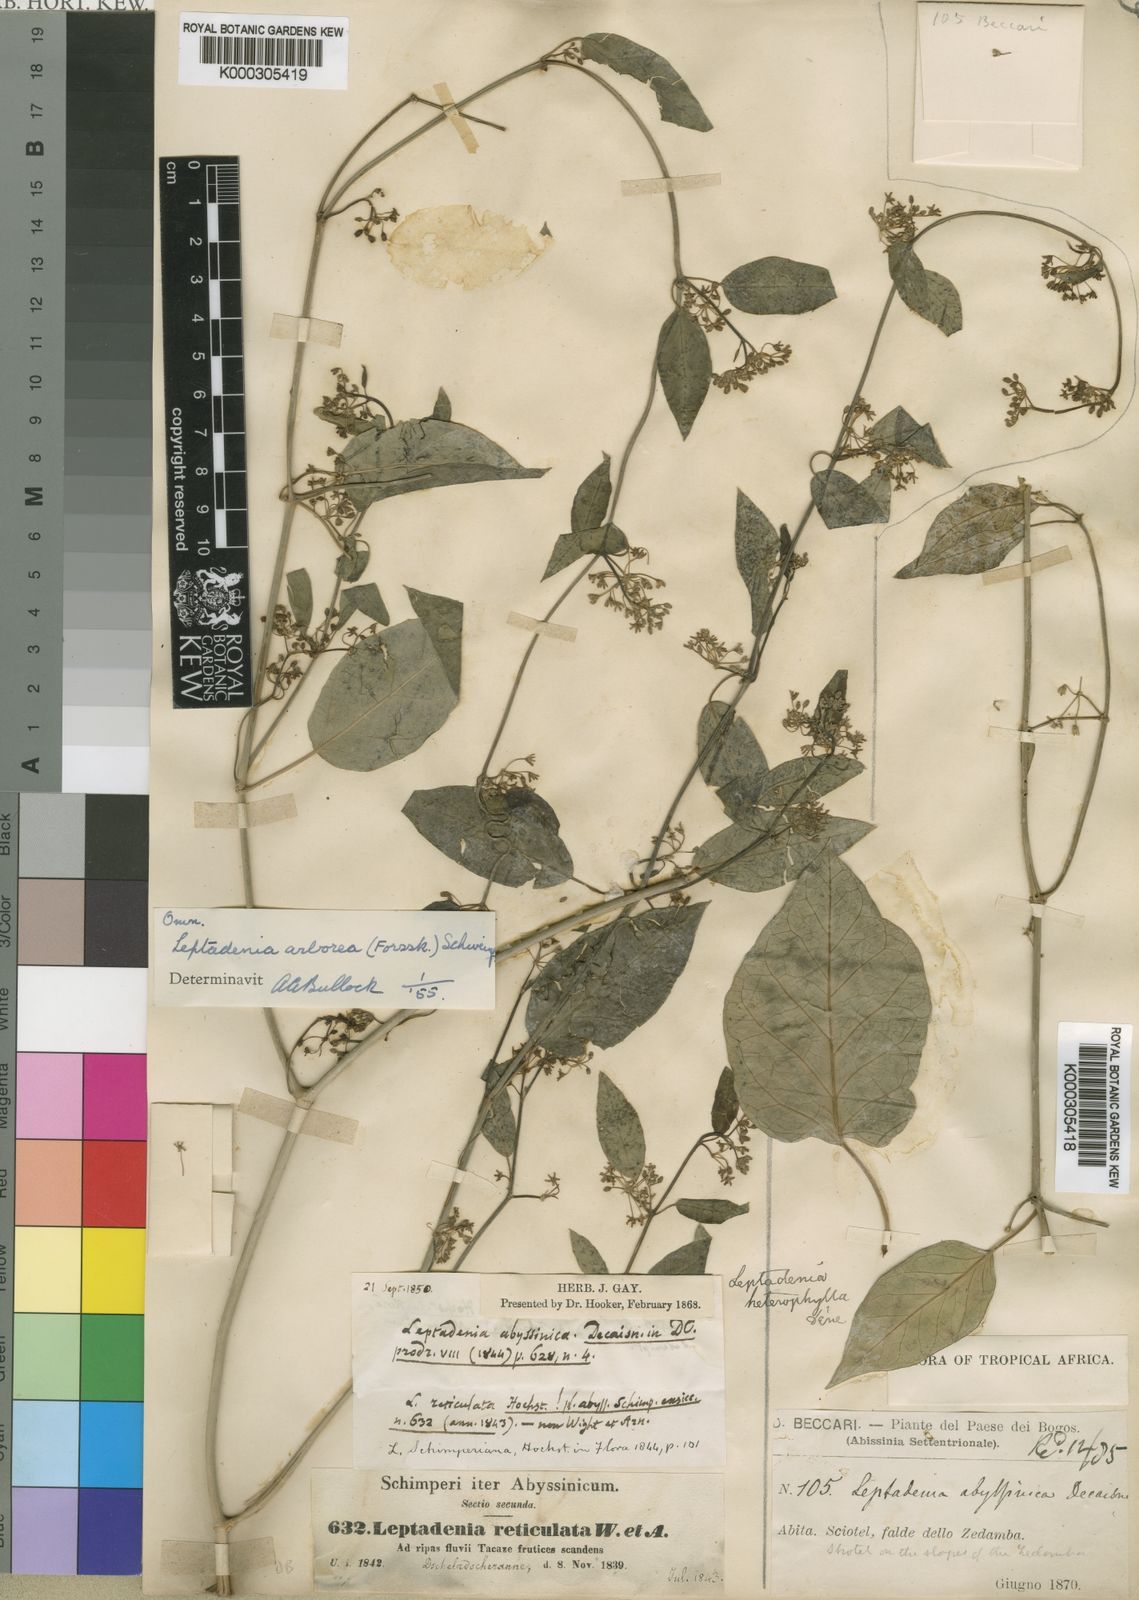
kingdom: Plantae
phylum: Tracheophyta
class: Magnoliopsida
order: Gentianales
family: Apocynaceae
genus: Leptadenia
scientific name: Leptadenia arborea
